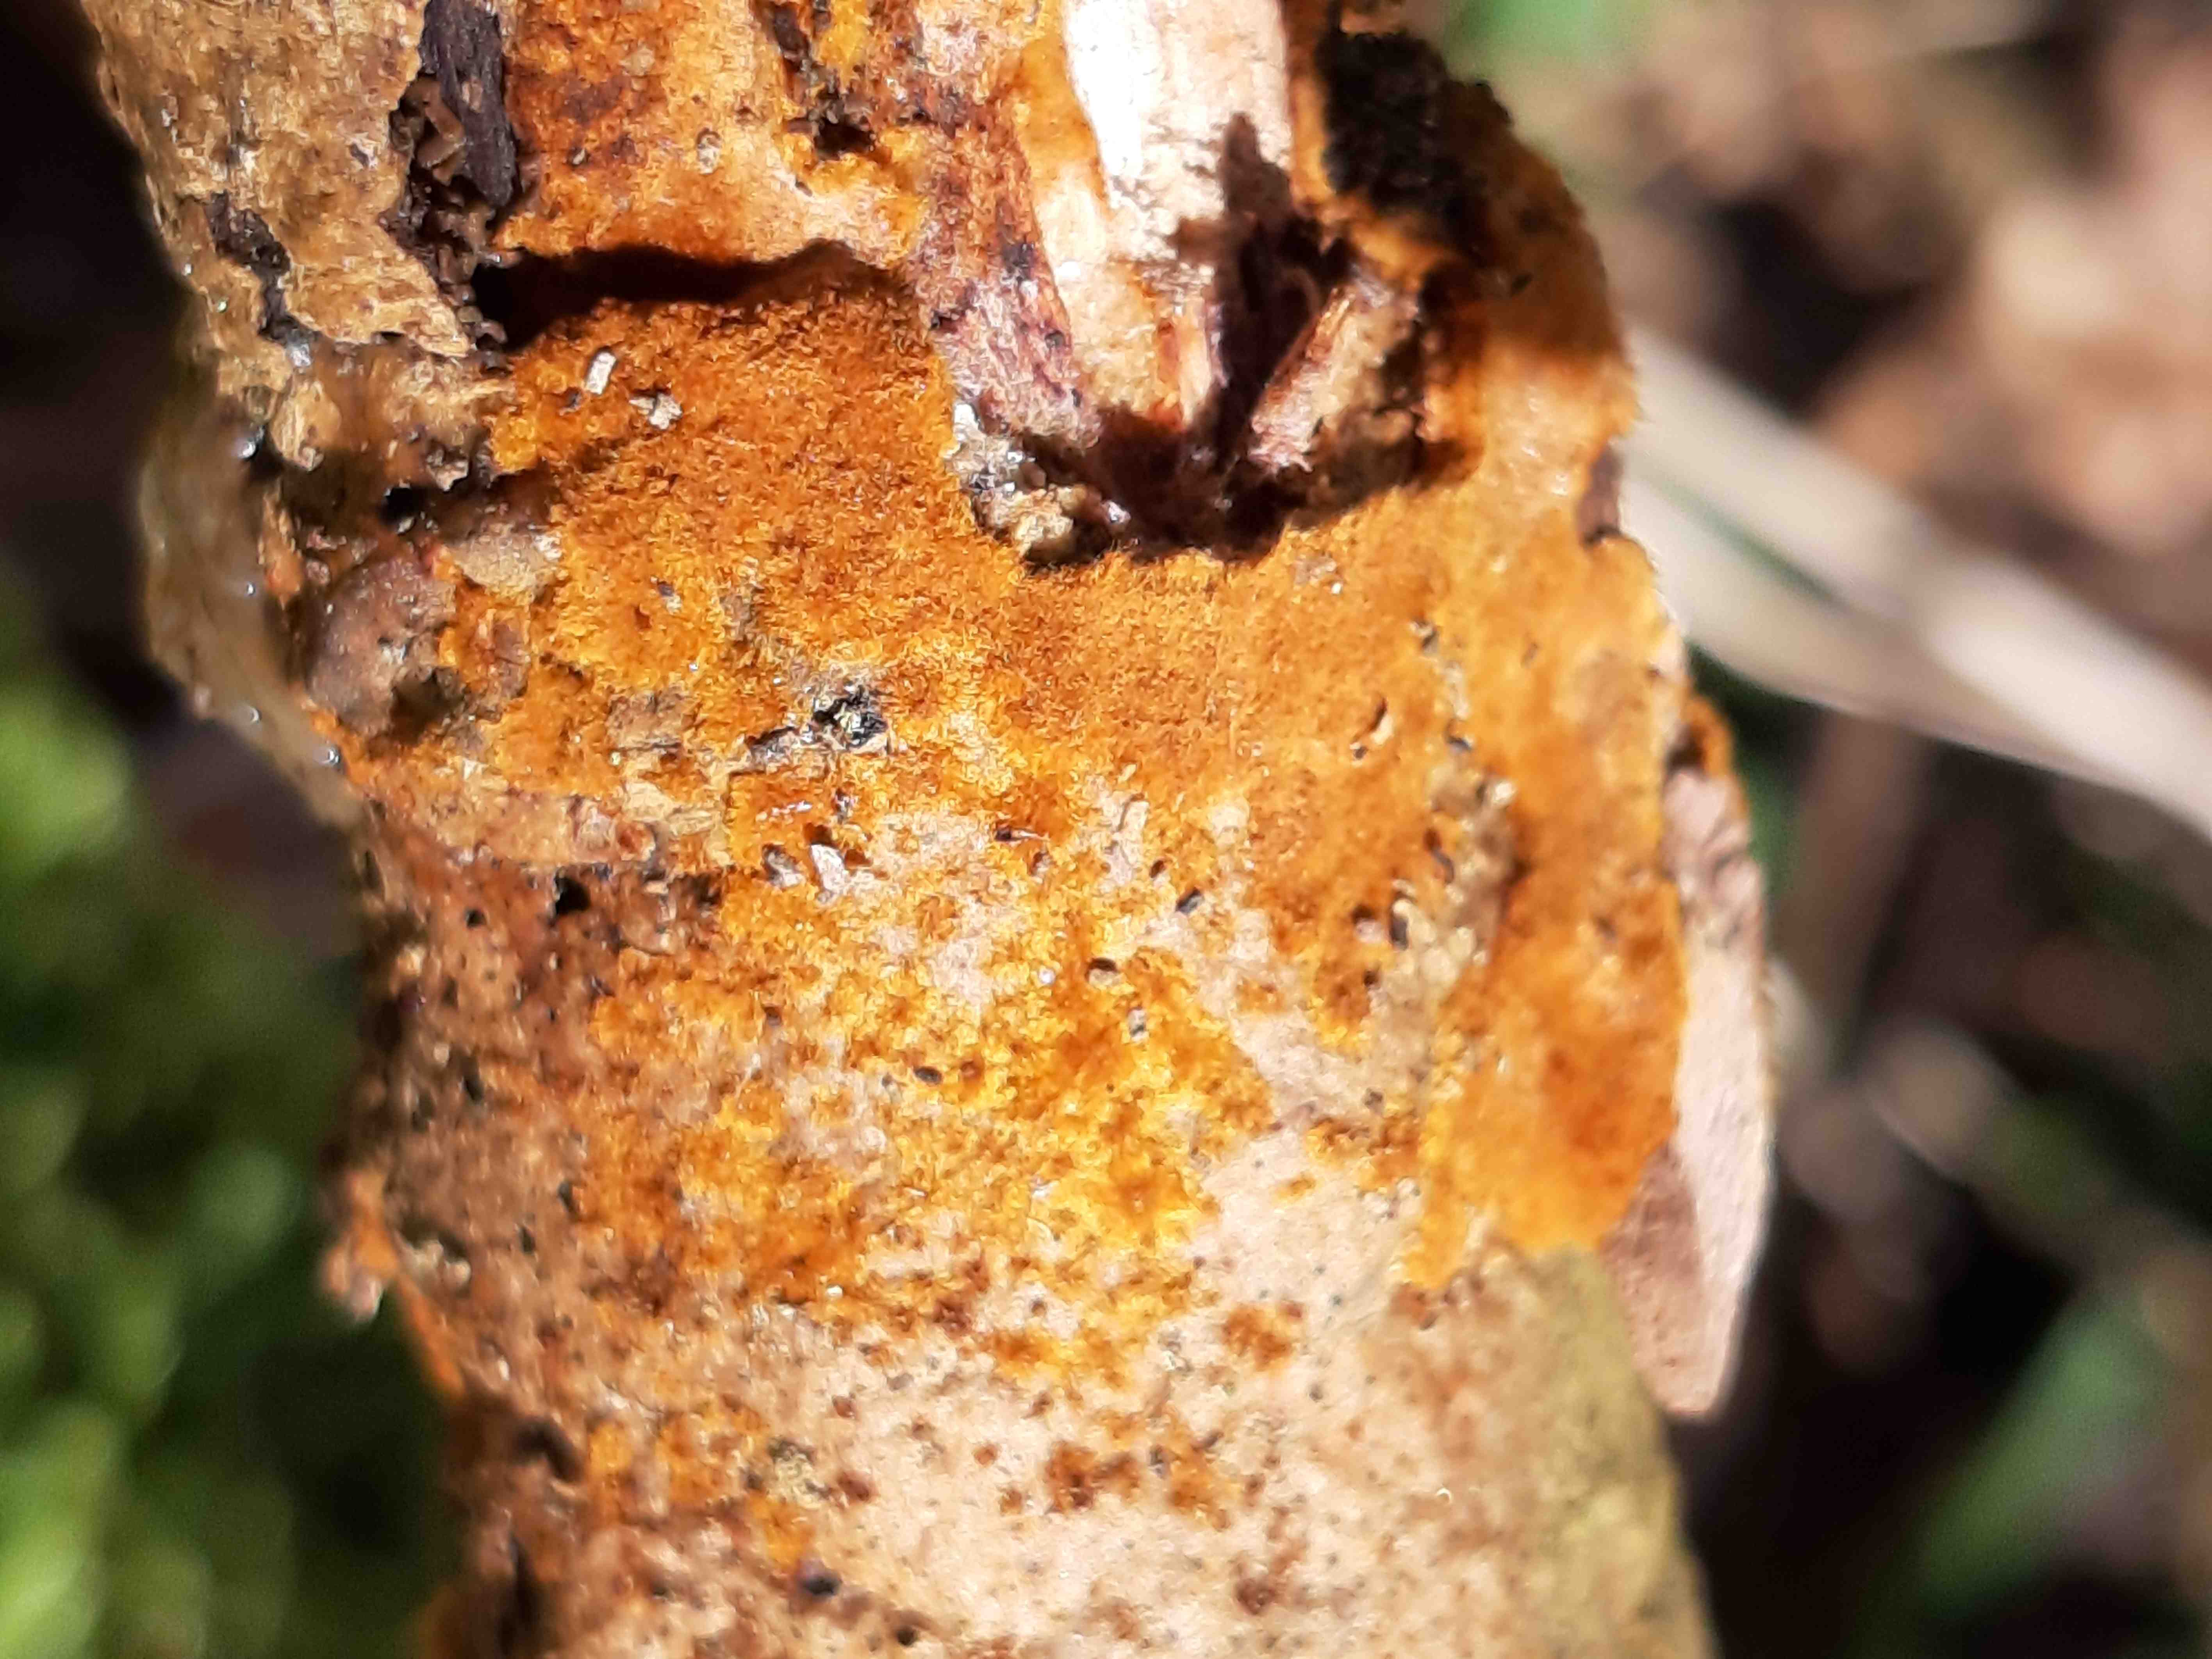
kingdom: Fungi
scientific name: Fungi
